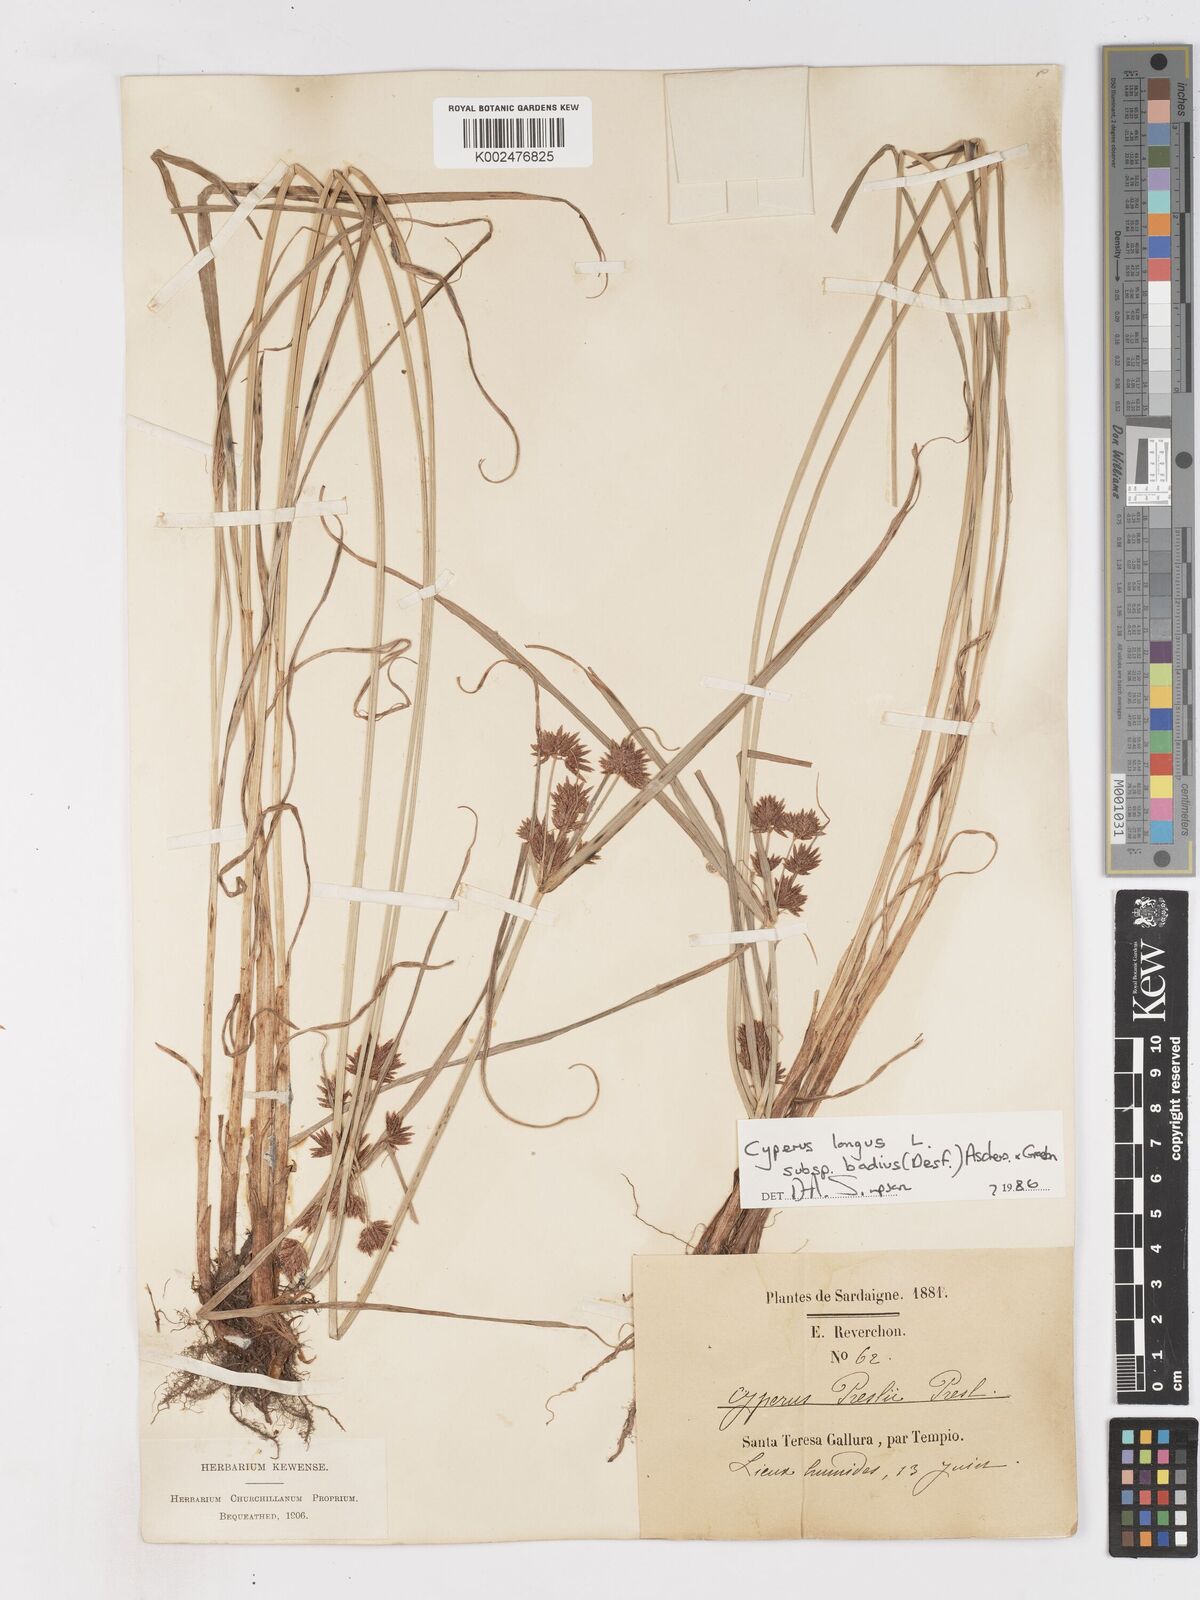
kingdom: Plantae
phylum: Tracheophyta
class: Liliopsida
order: Poales
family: Cyperaceae
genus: Cyperus
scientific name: Cyperus longus
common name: Galingale
